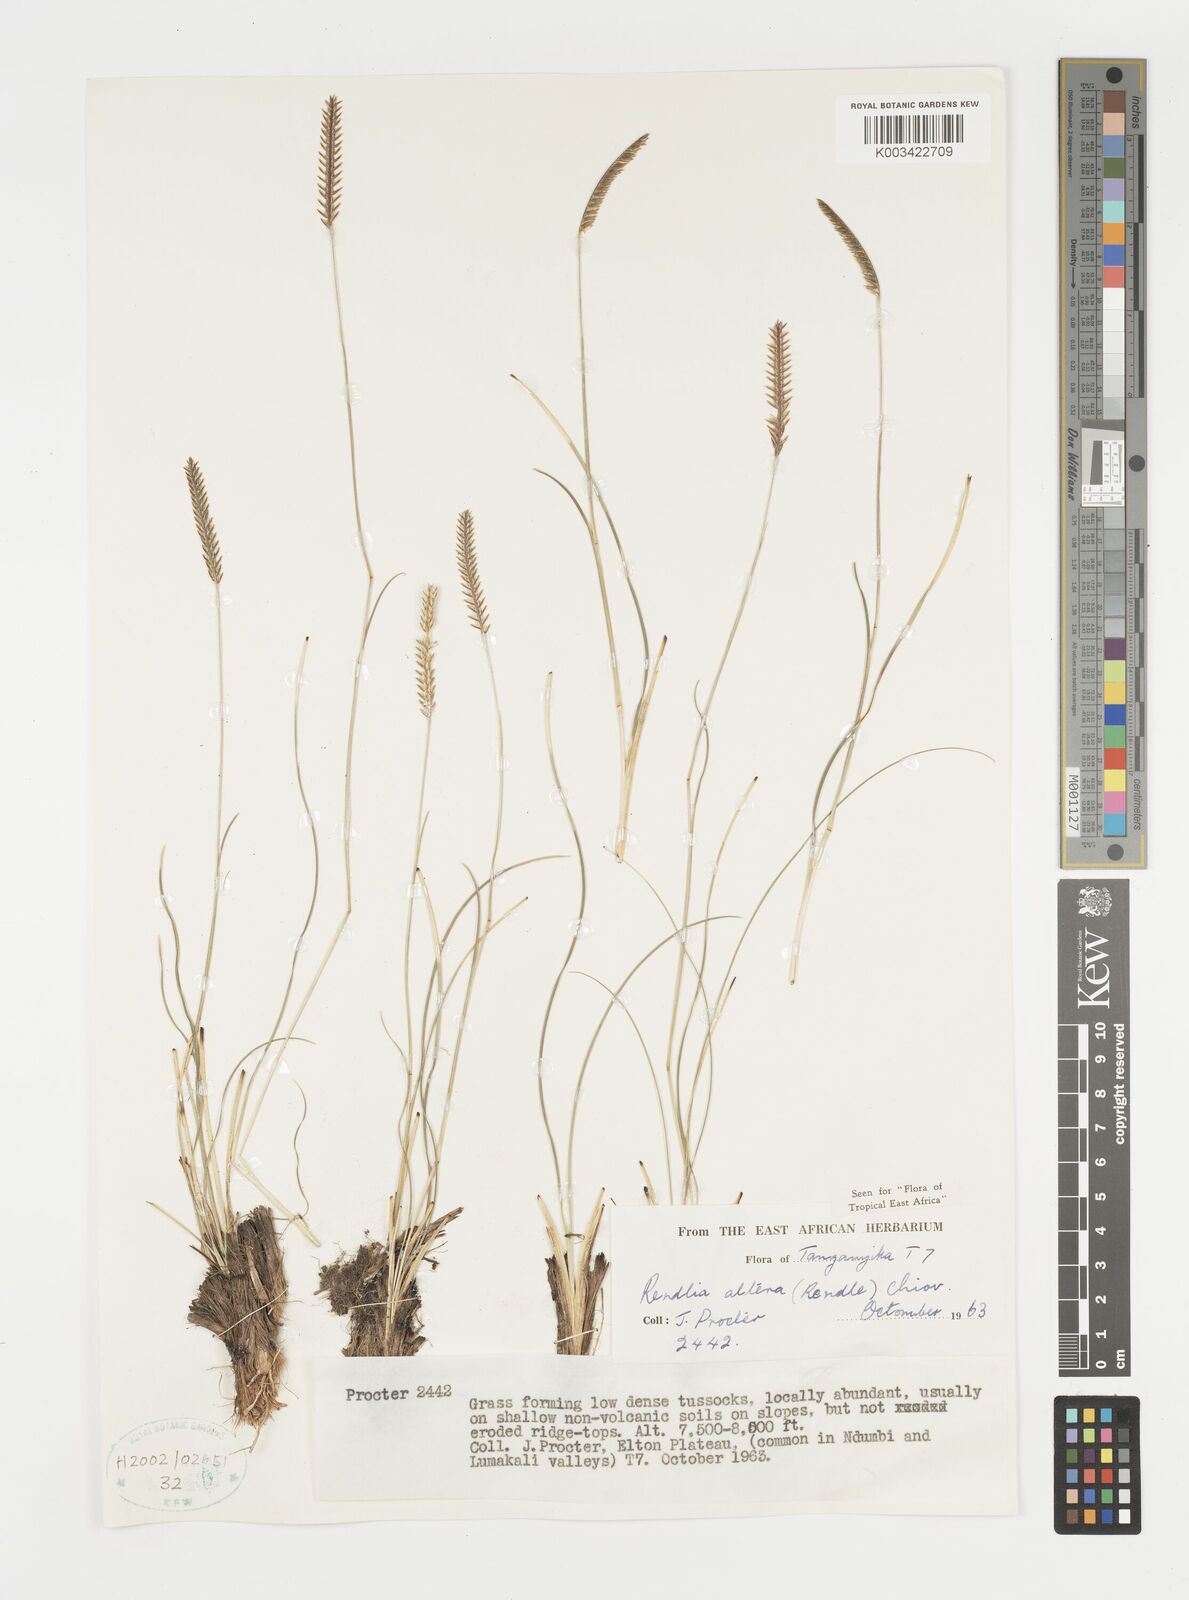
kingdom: Plantae
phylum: Tracheophyta
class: Liliopsida
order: Poales
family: Poaceae
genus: Microchloa
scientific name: Microchloa altera
